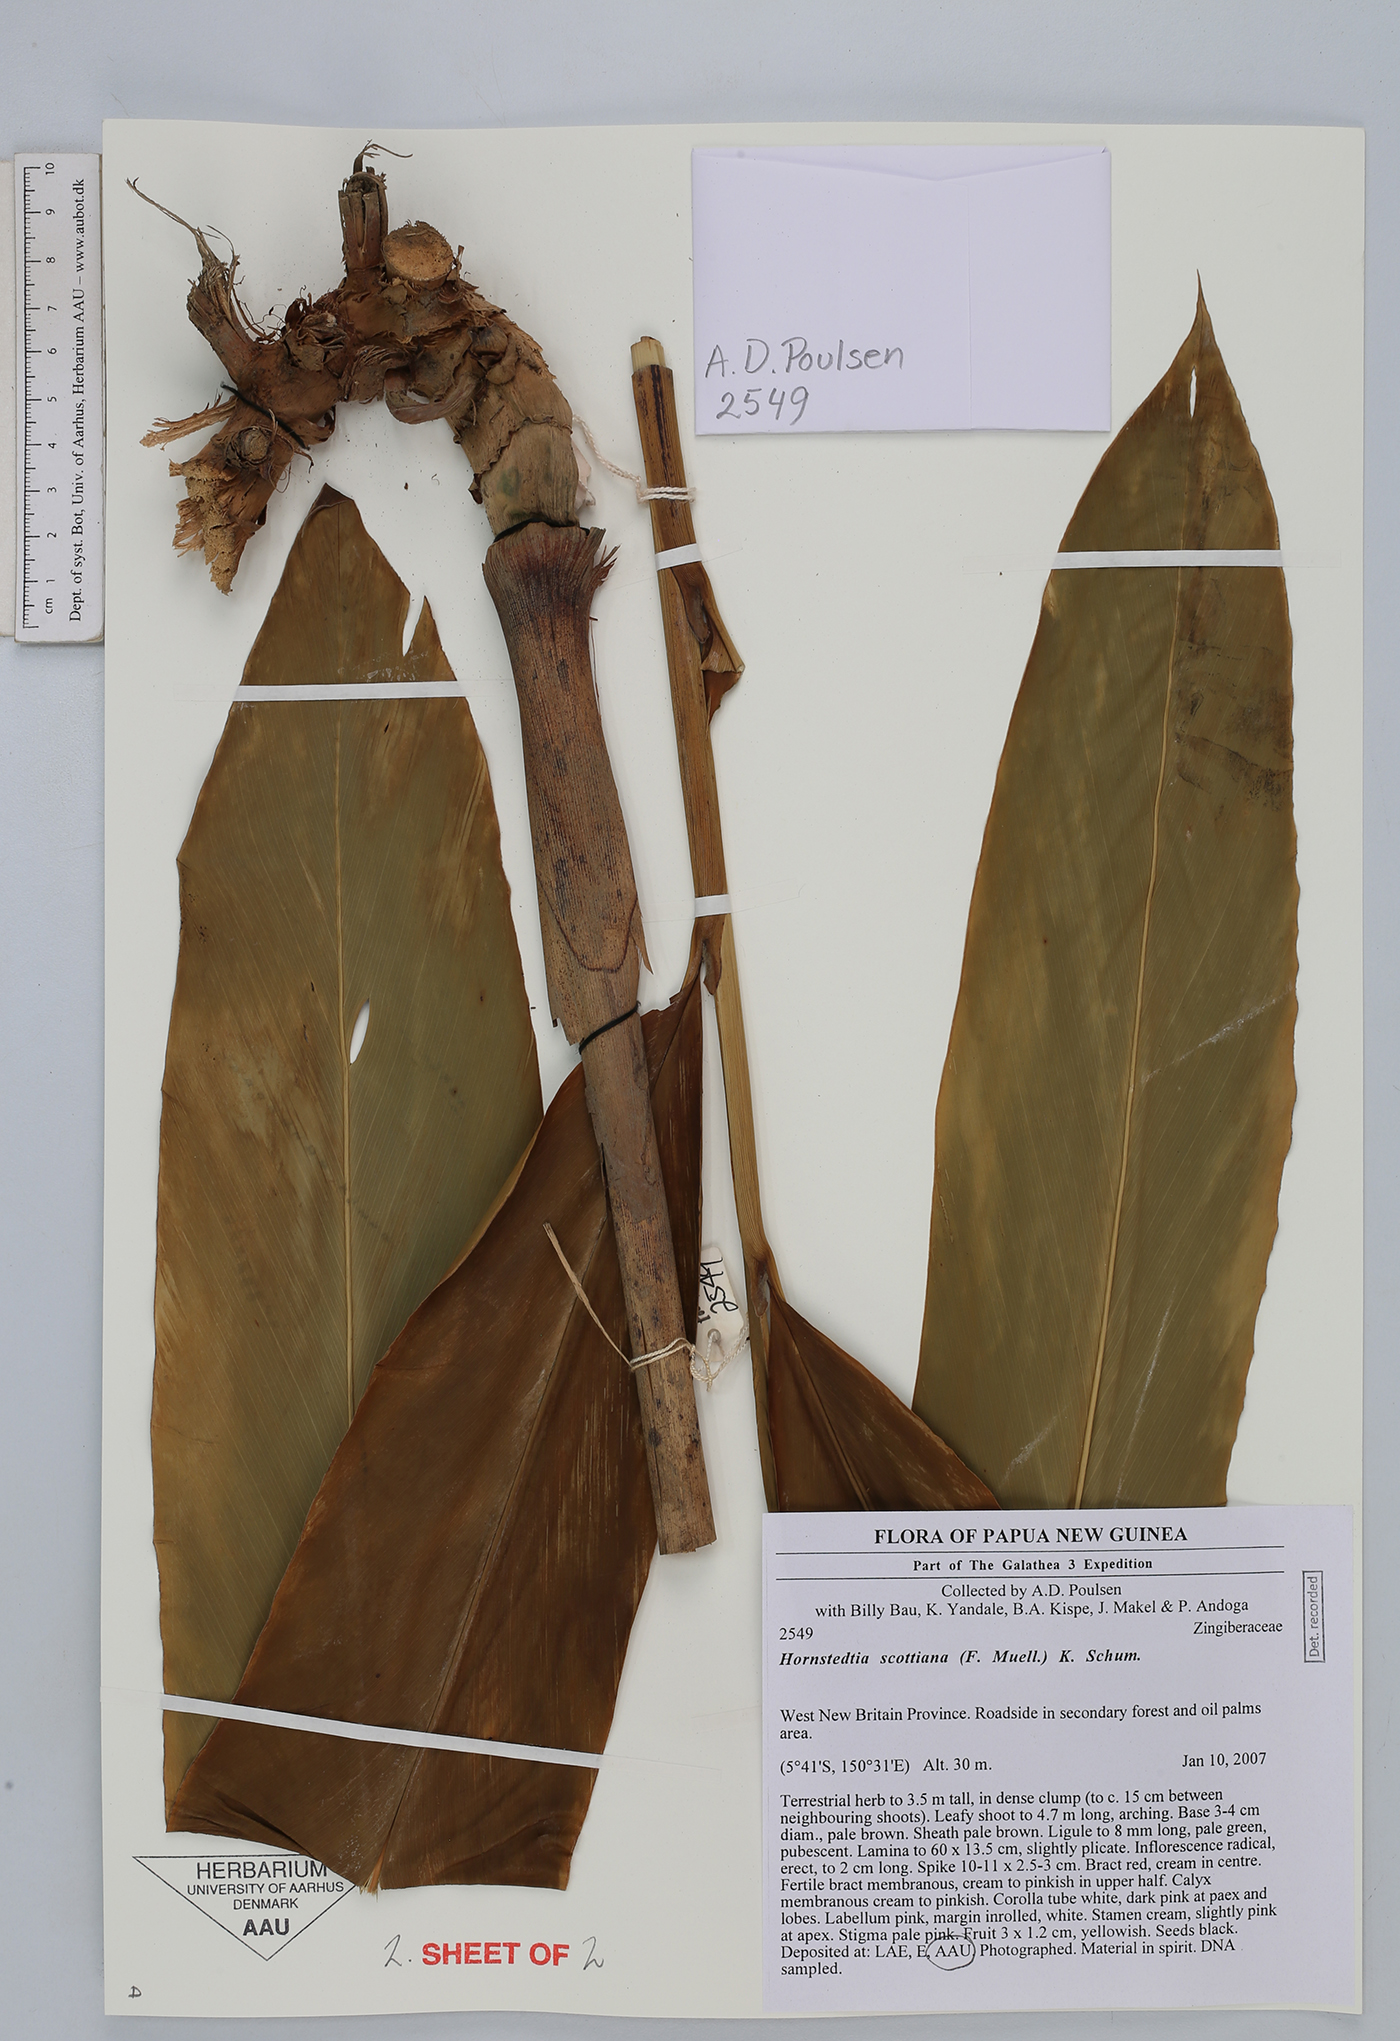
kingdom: Plantae
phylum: Tracheophyta
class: Liliopsida
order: Zingiberales
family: Zingiberaceae
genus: Hornstedtia
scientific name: Hornstedtia scottiana
